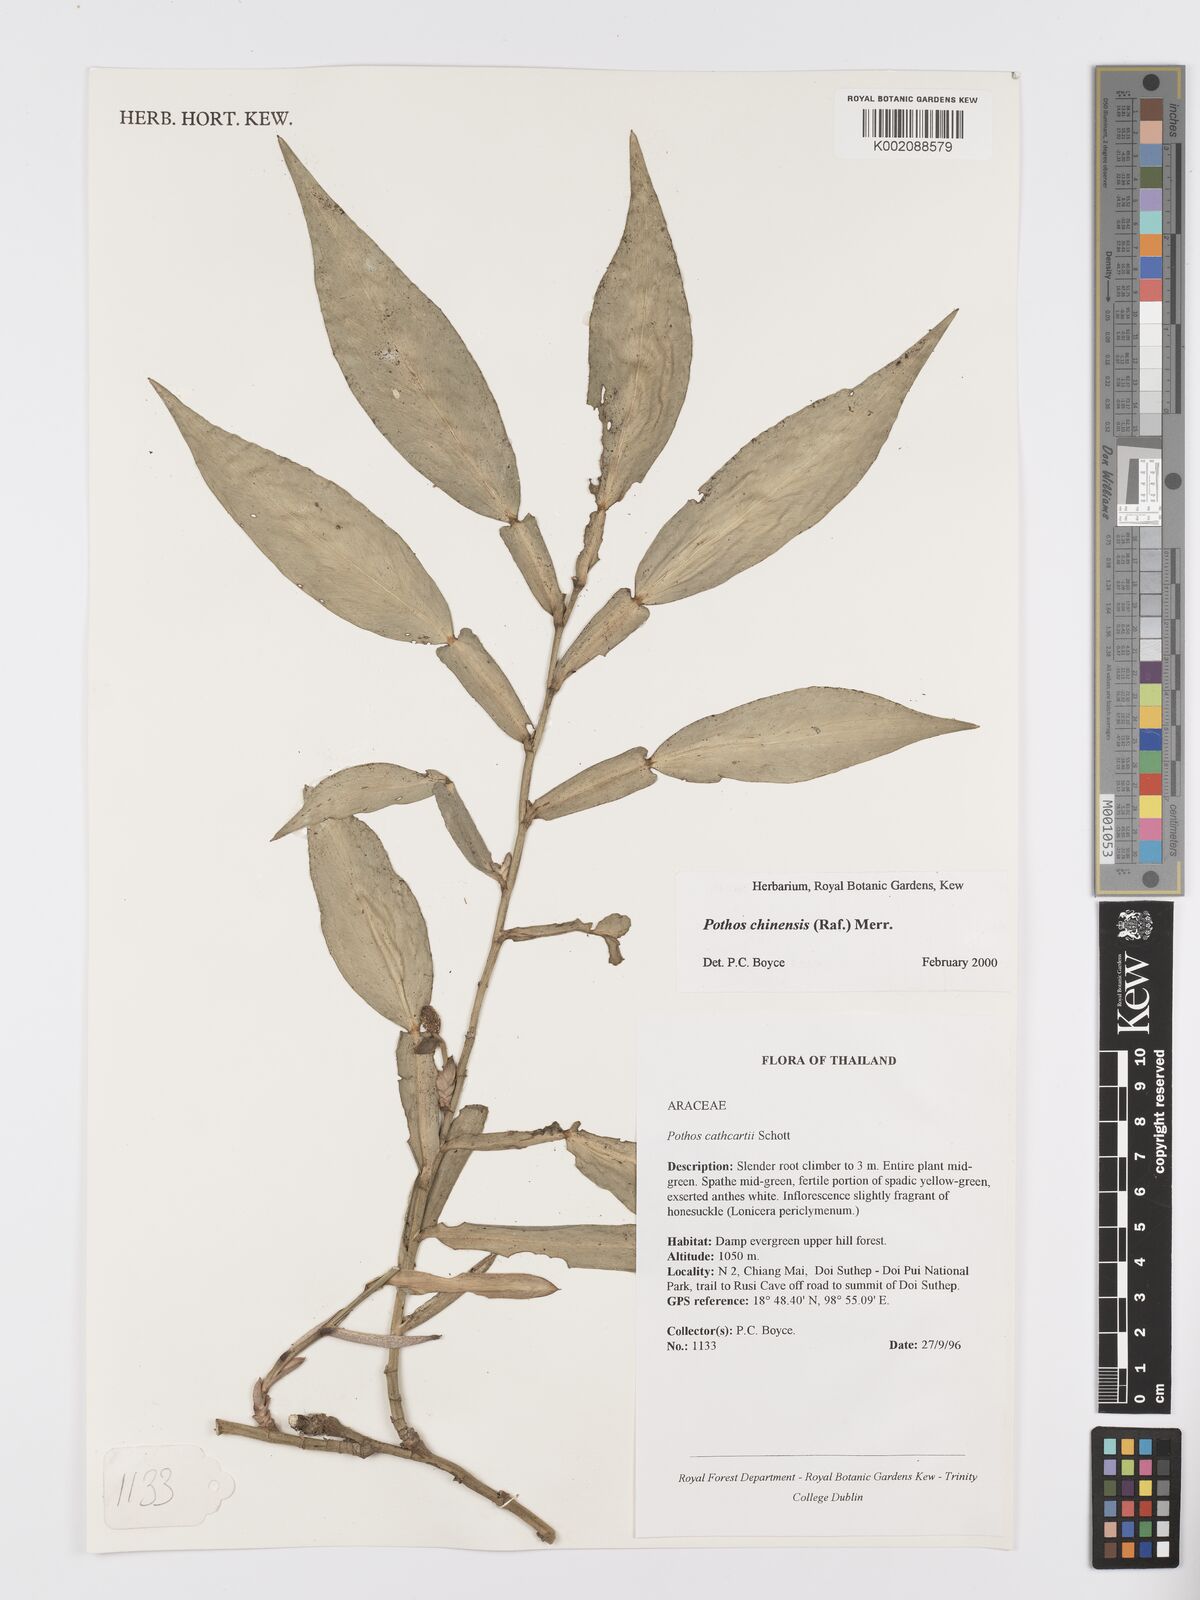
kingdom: Plantae
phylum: Tracheophyta
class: Liliopsida
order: Alismatales
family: Araceae
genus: Pothos
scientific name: Pothos chinensis
